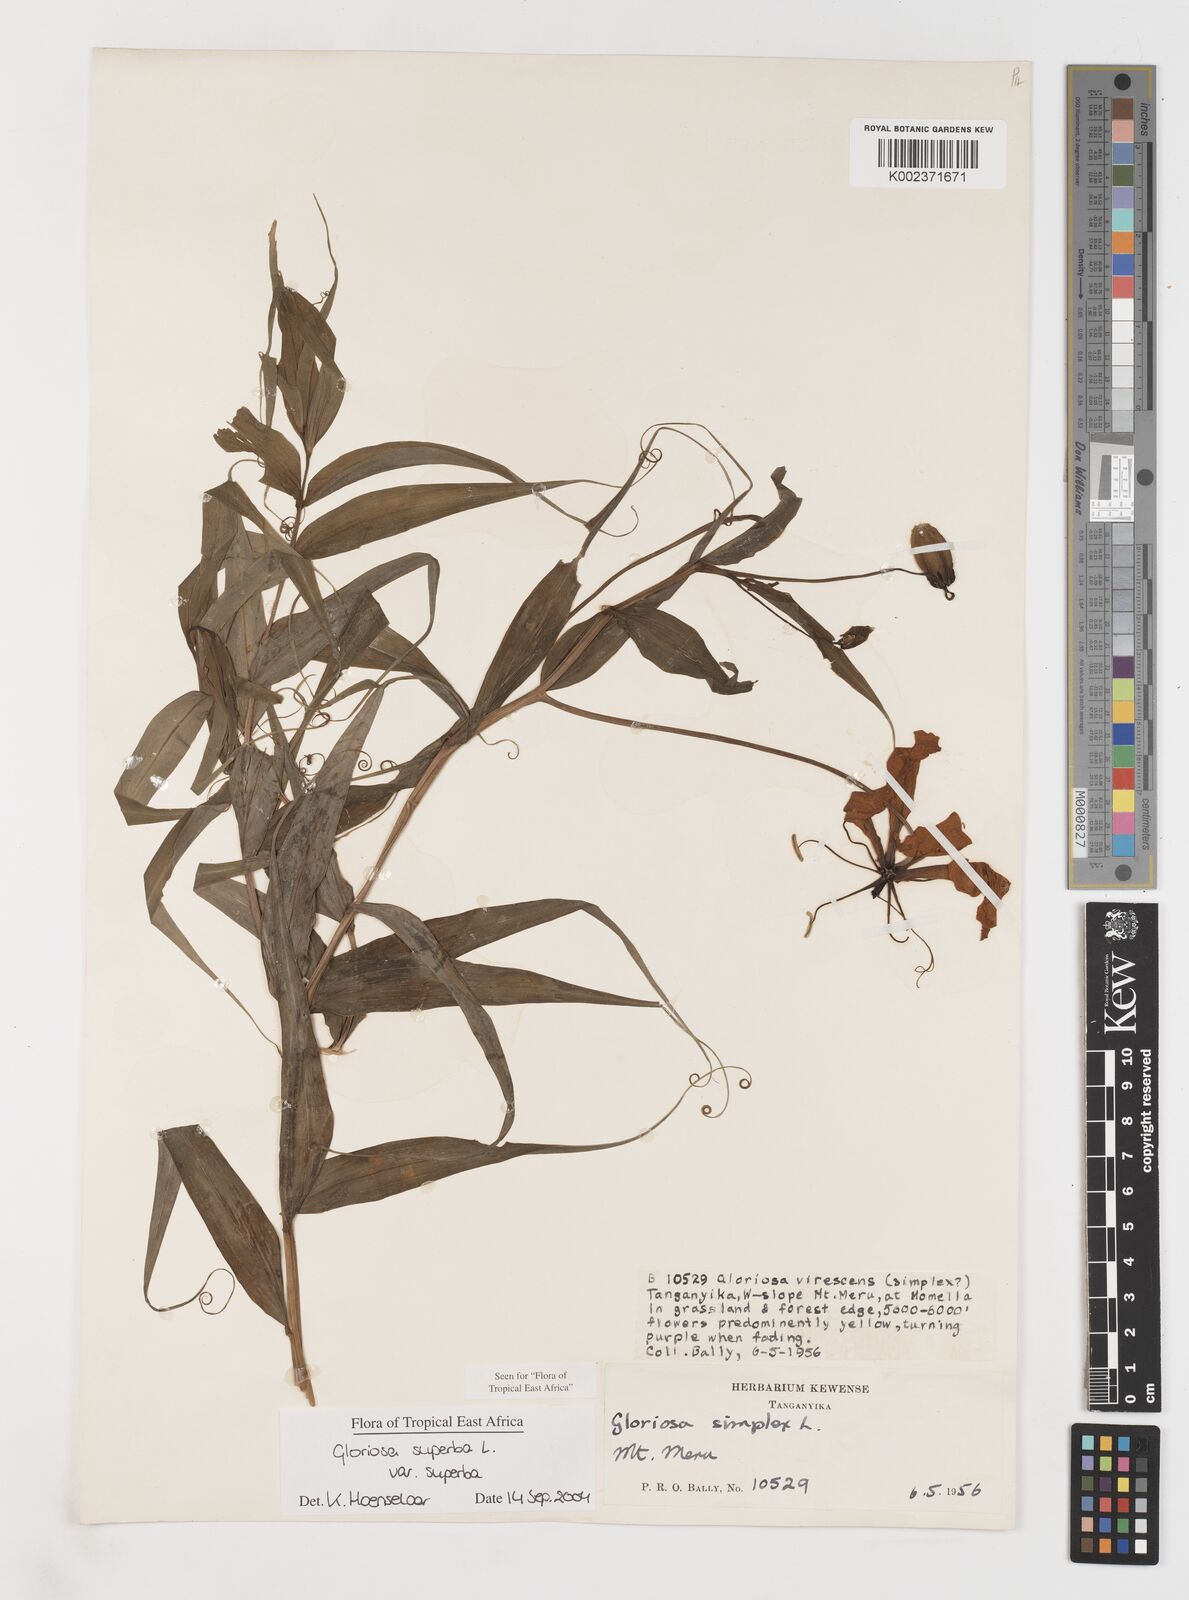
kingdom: Plantae
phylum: Tracheophyta
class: Liliopsida
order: Liliales
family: Colchicaceae
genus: Gloriosa
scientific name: Gloriosa simplex
